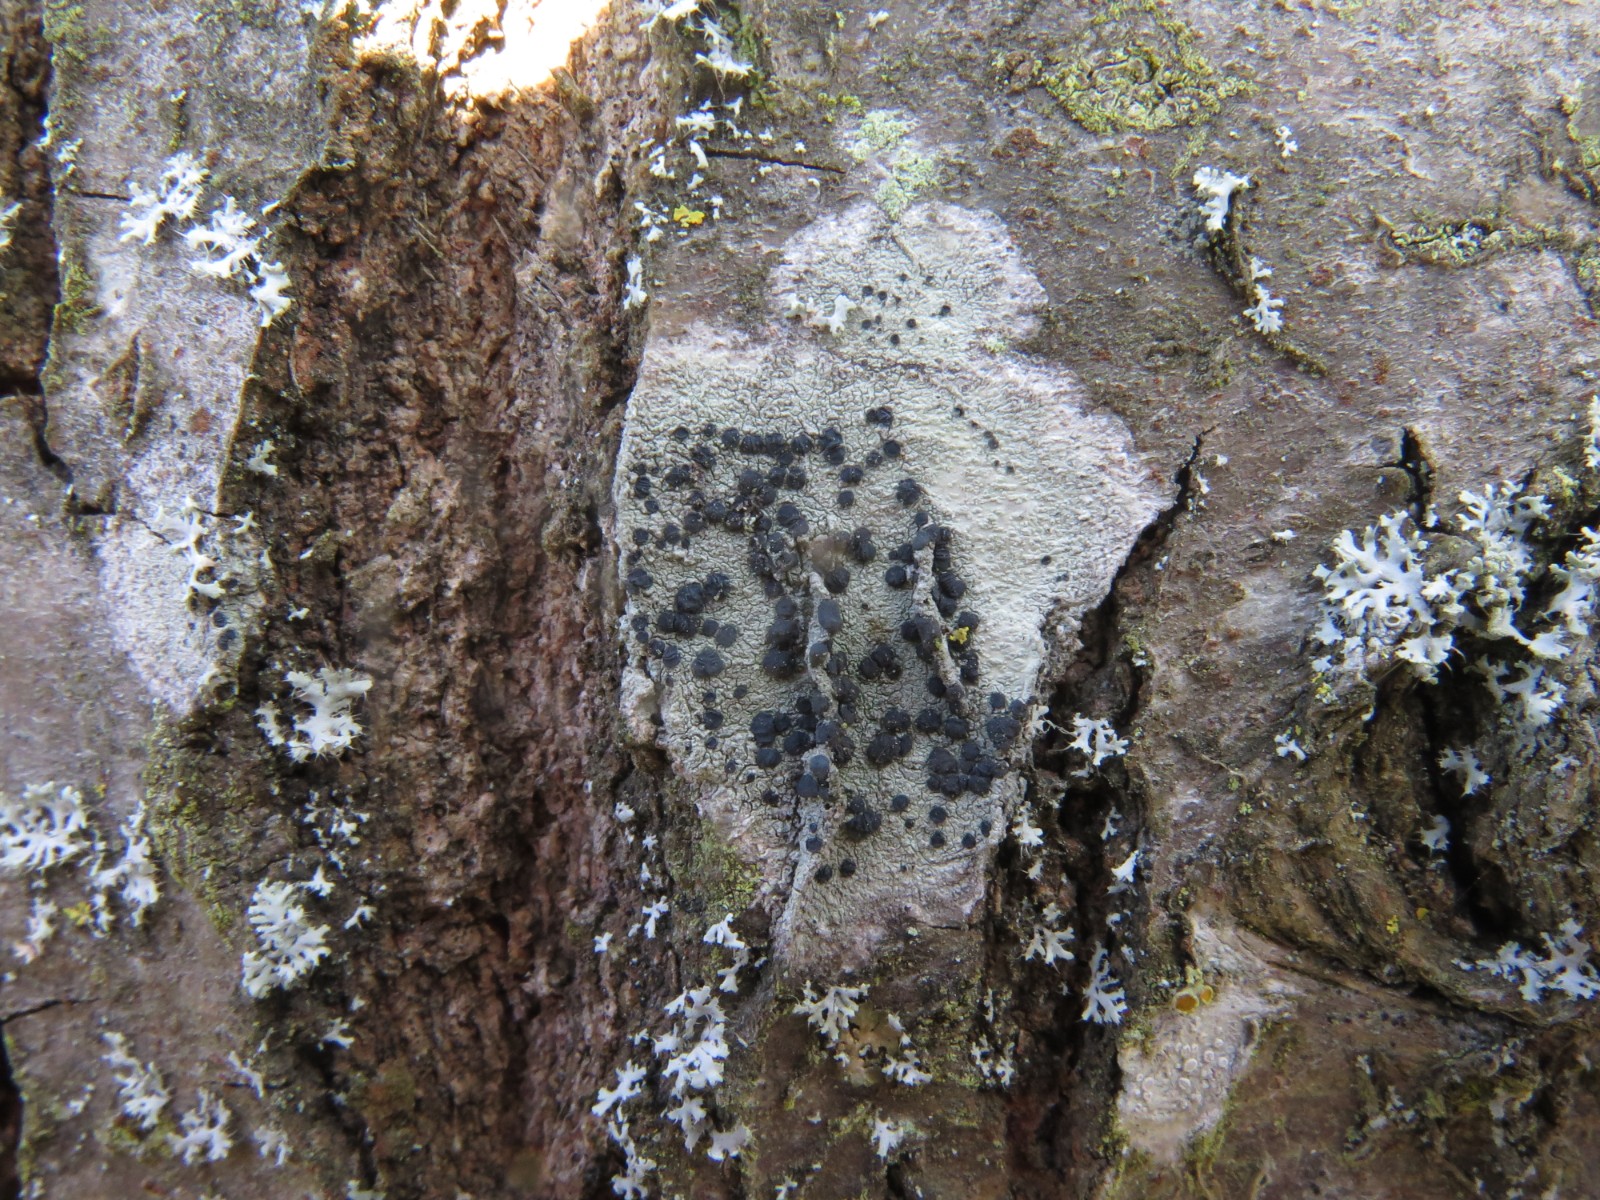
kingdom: Fungi
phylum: Ascomycota
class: Lecanoromycetes
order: Lecanorales
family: Lecanoraceae
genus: Lecidella
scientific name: Lecidella elaeochroma
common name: grågrøn skivelav
